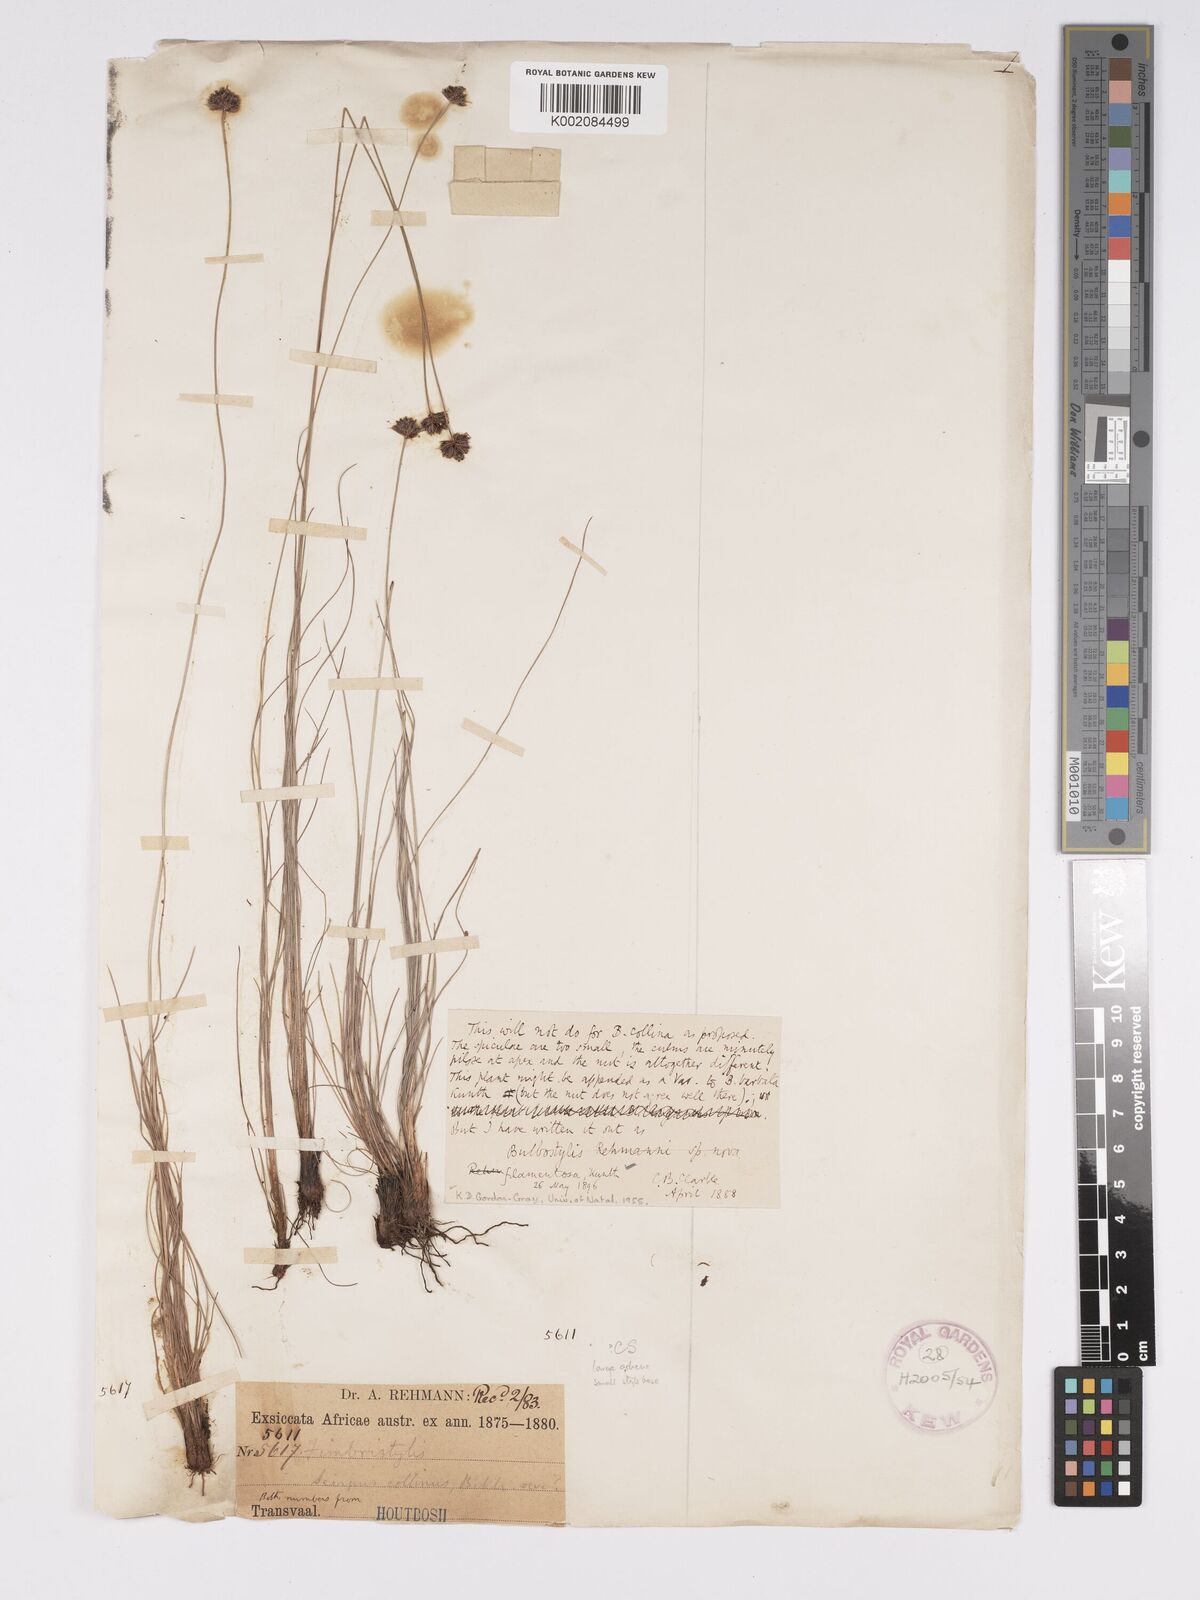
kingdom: Plantae
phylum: Tracheophyta
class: Liliopsida
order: Poales
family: Cyperaceae
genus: Bulbostylis
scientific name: Bulbostylis filamentosa
